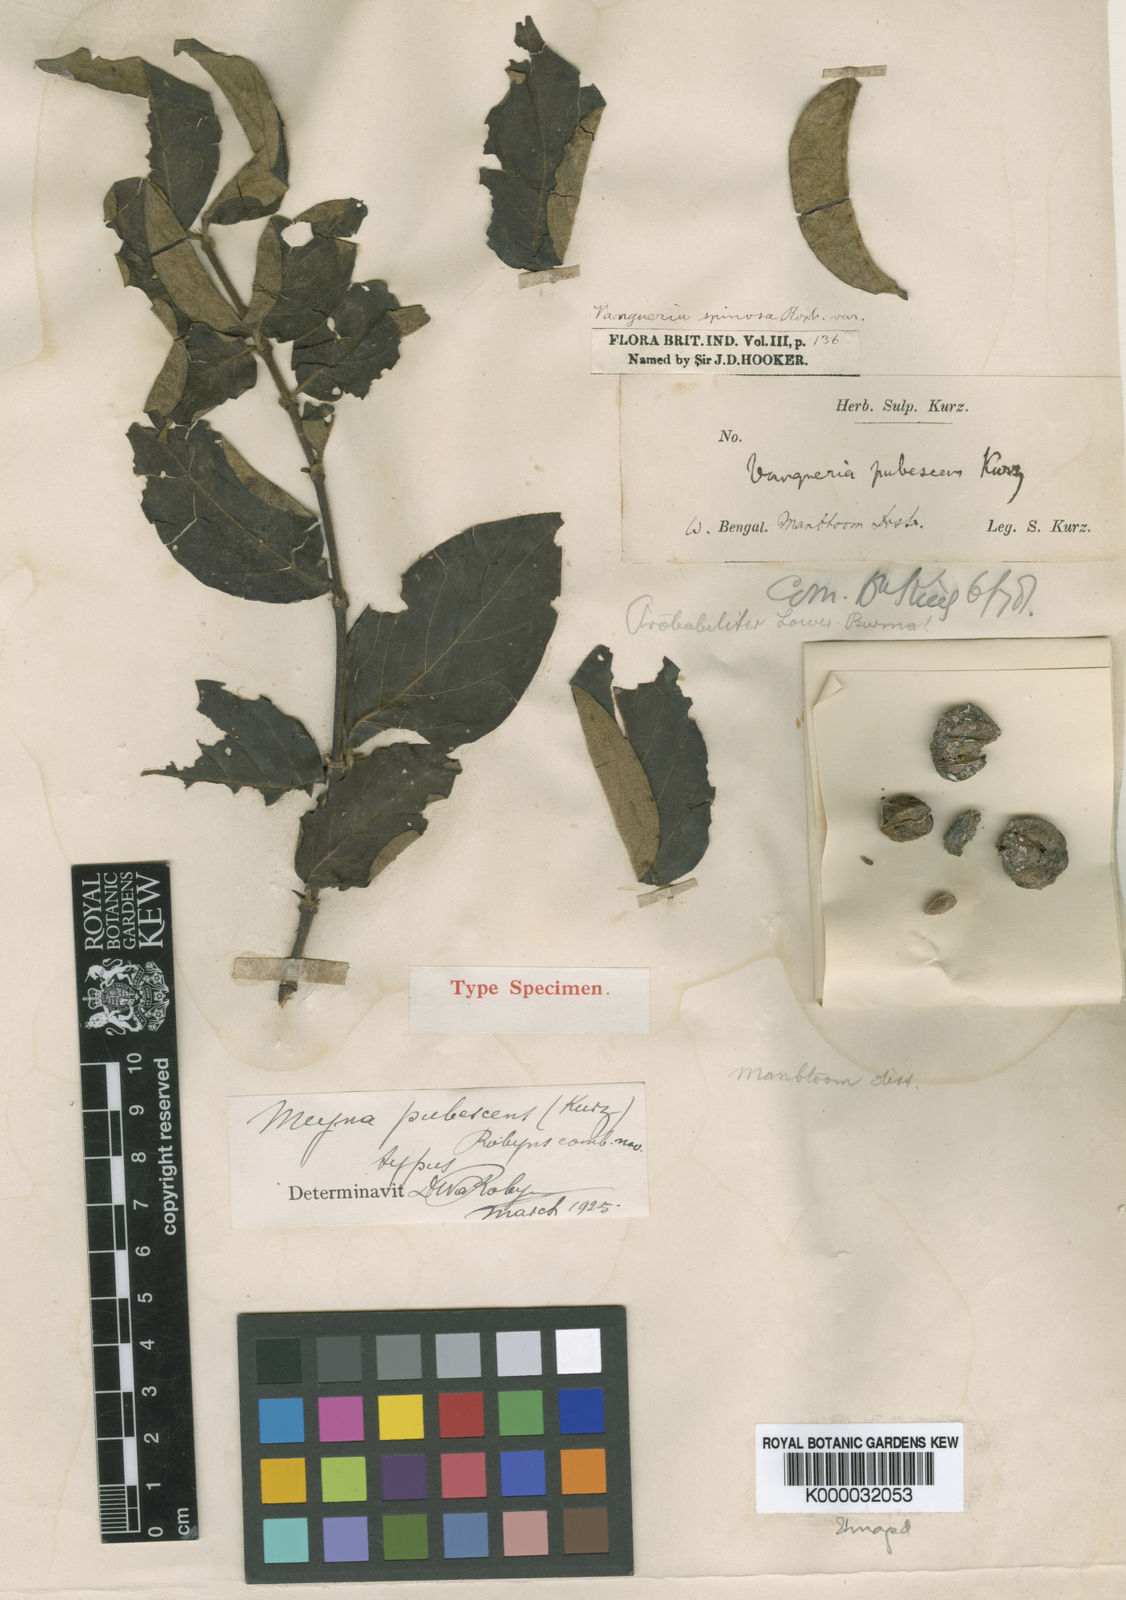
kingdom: Plantae
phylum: Tracheophyta
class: Magnoliopsida
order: Gentianales
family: Rubiaceae
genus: Meyna
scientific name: Meyna pubescens
